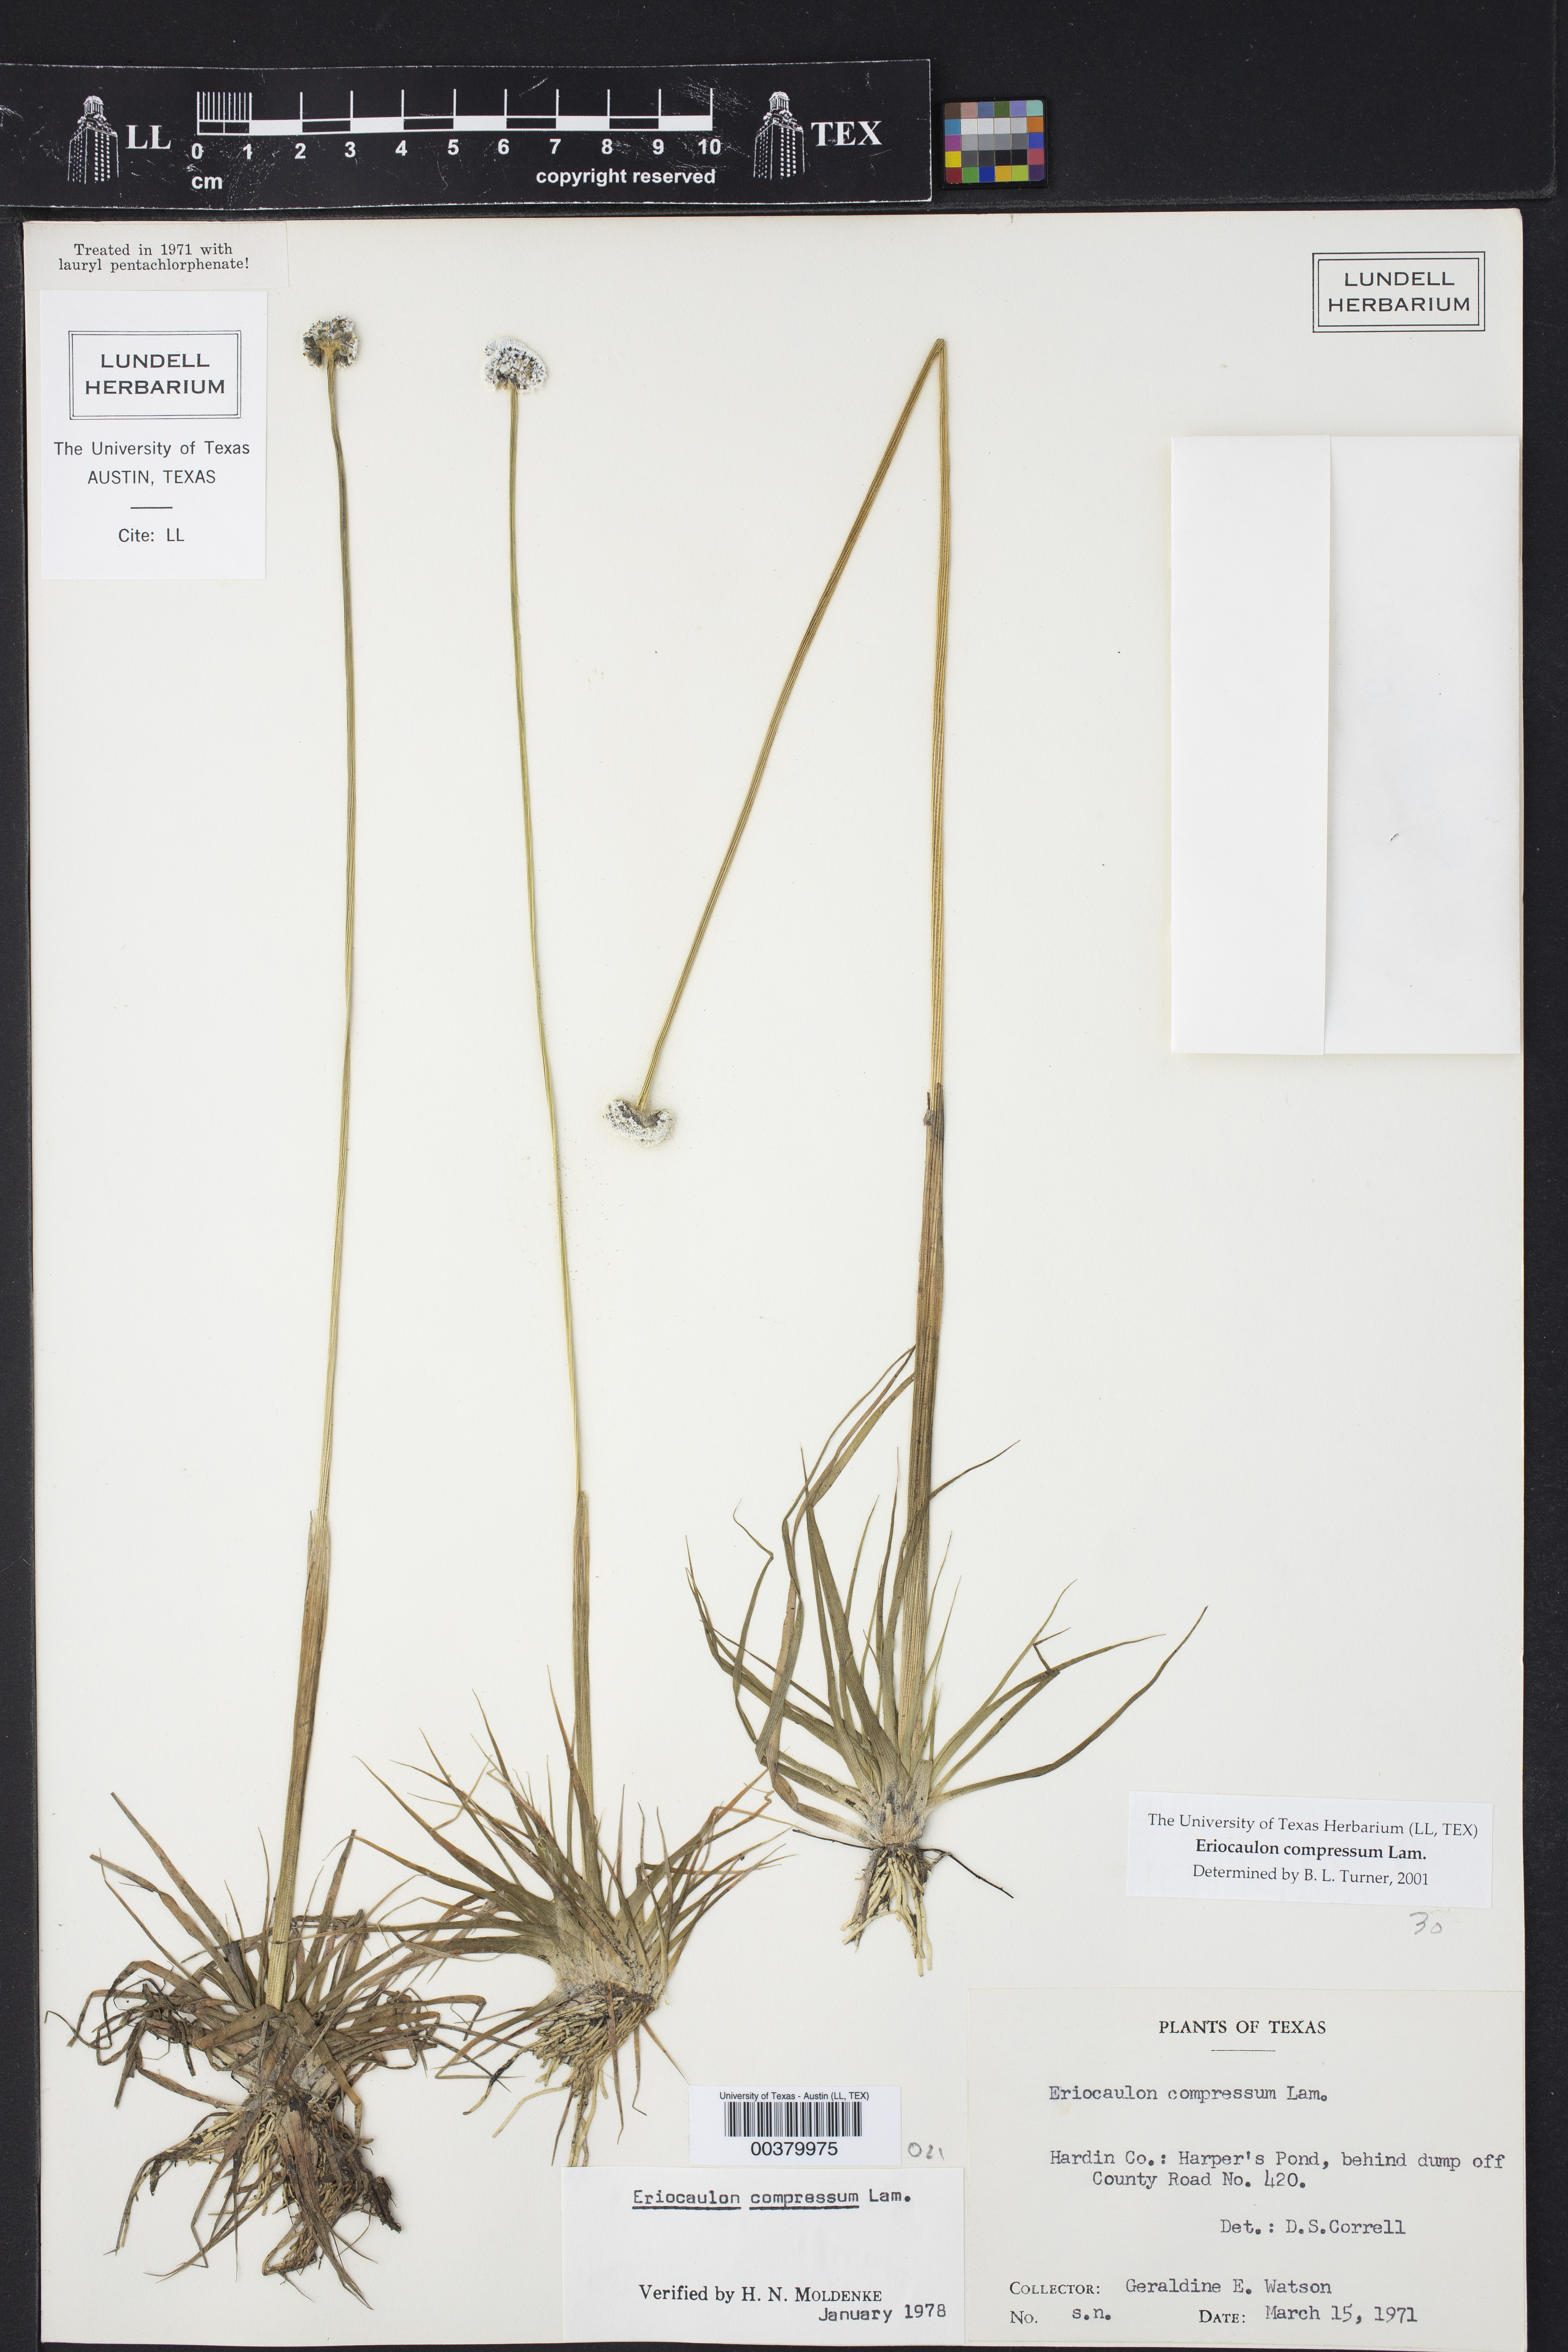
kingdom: Plantae
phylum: Tracheophyta
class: Liliopsida
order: Poales
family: Eriocaulaceae
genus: Eriocaulon
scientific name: Eriocaulon compressum
